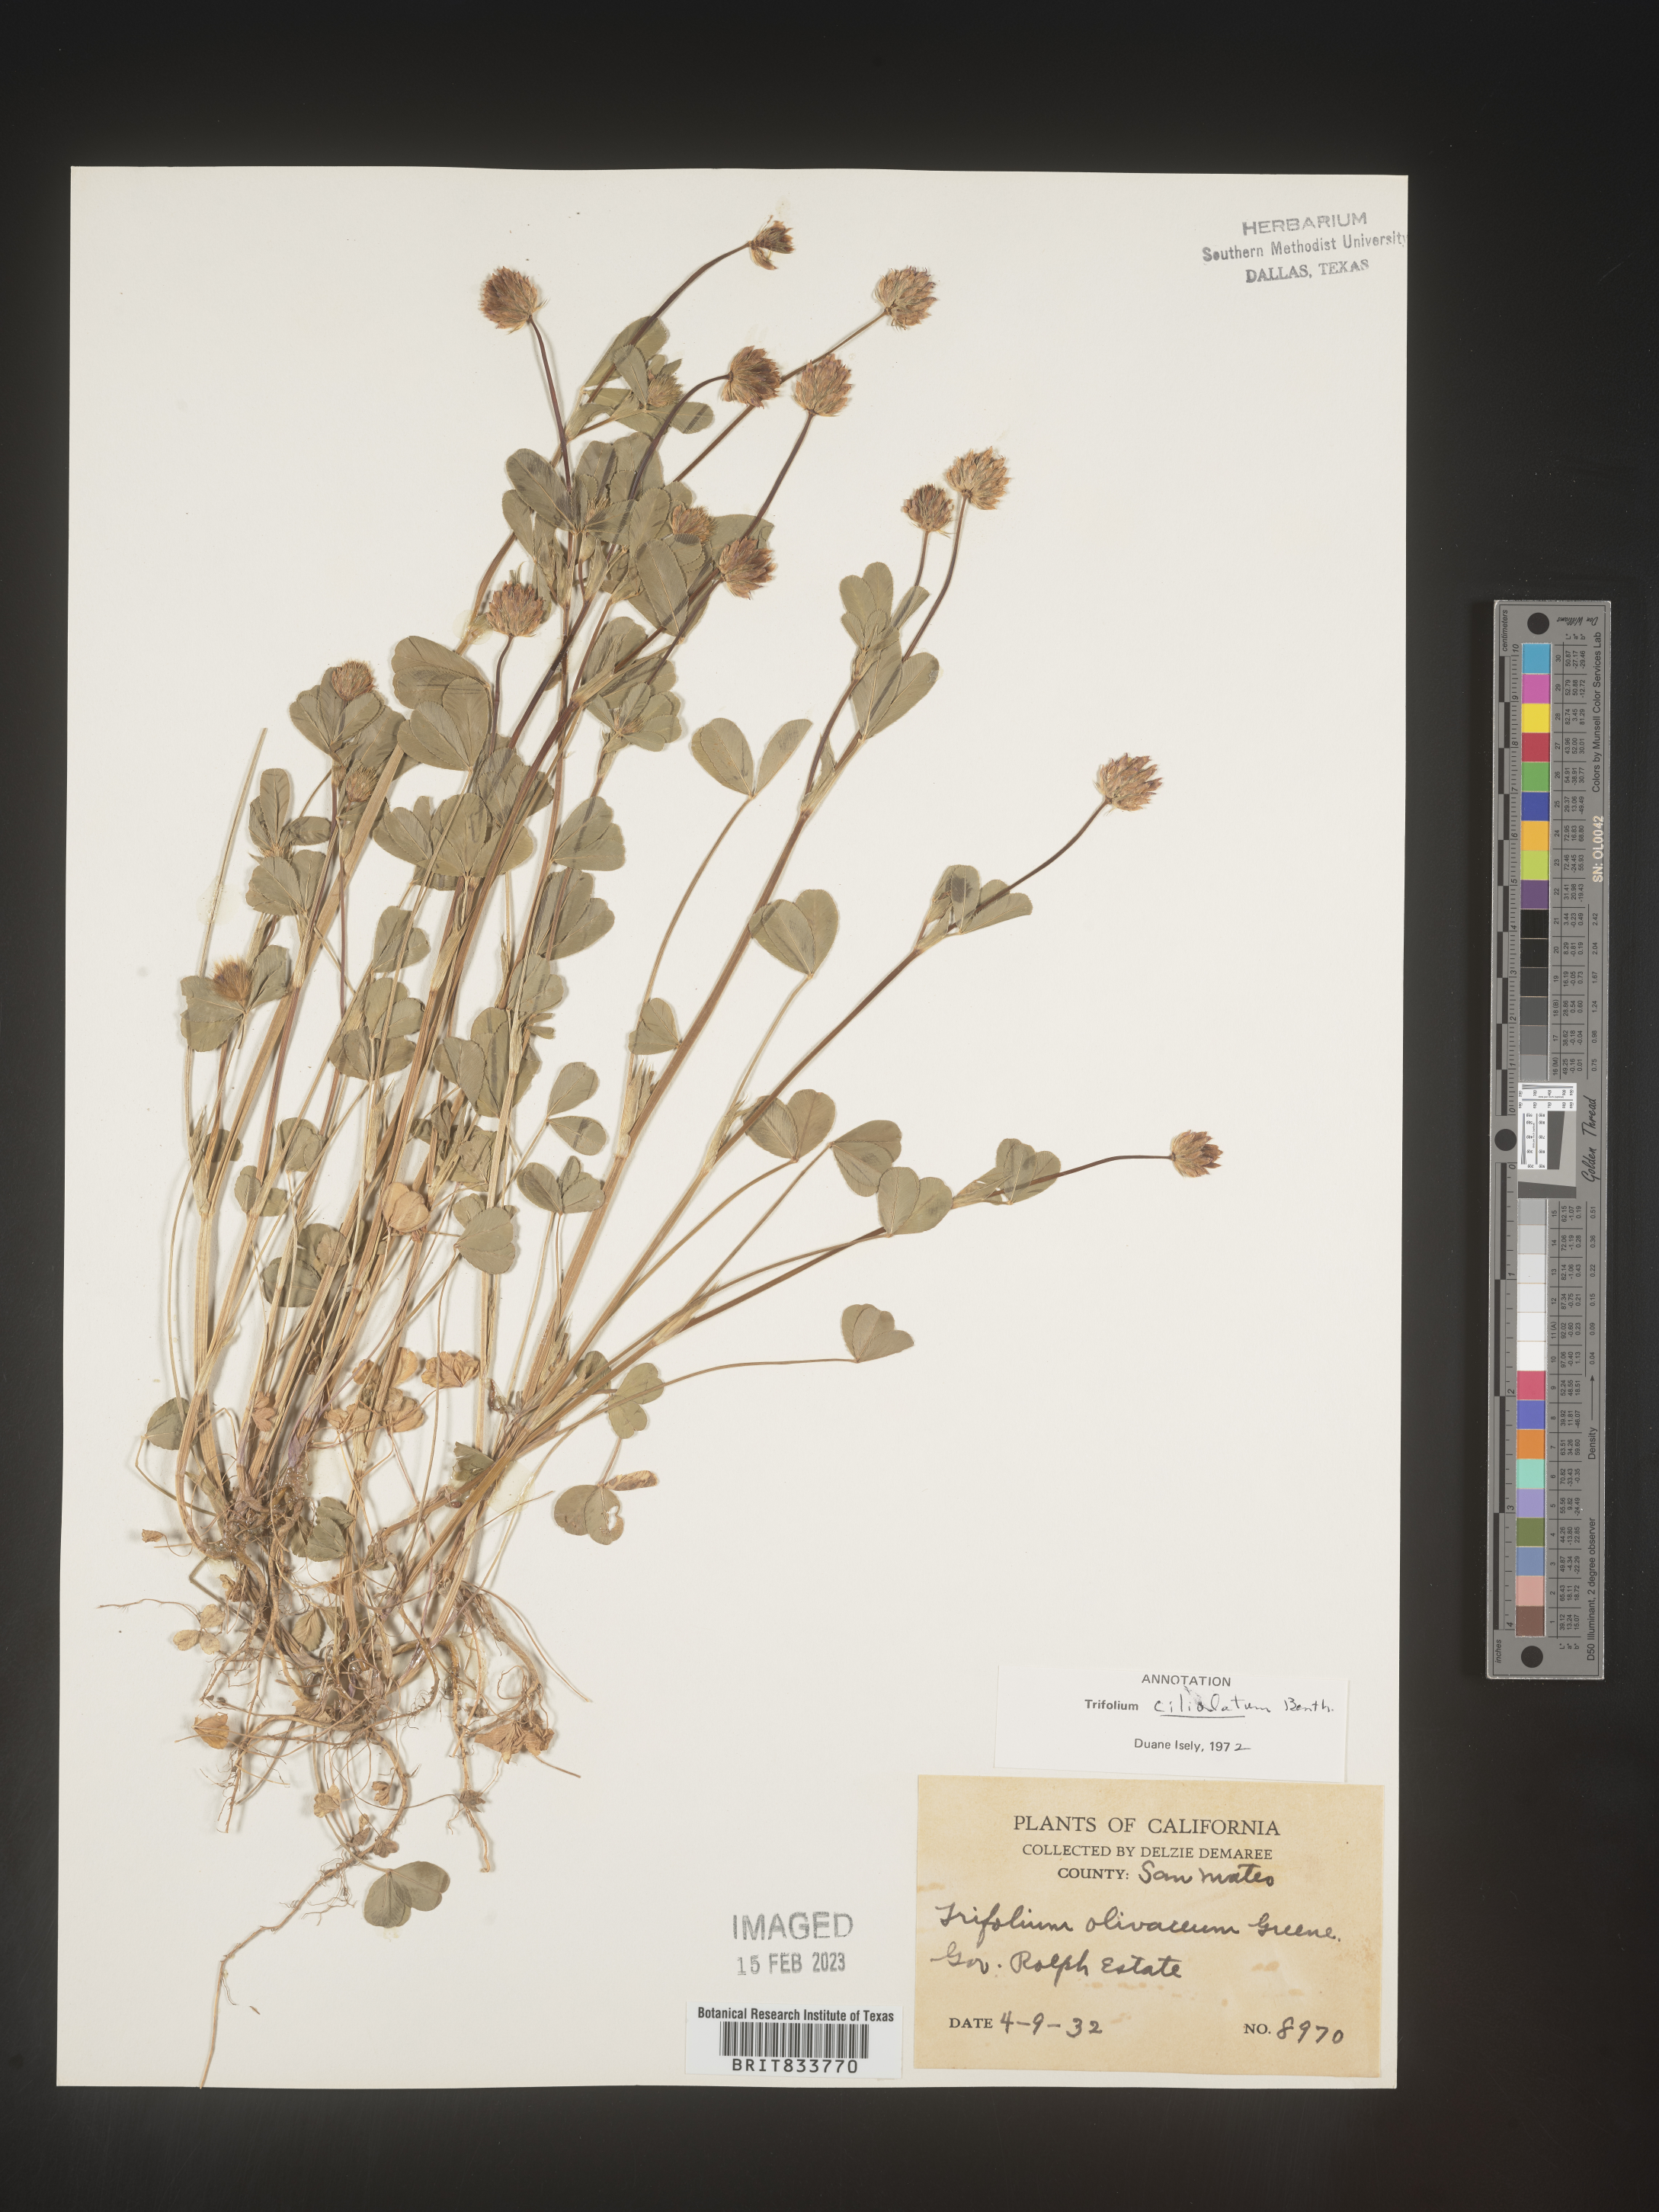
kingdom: Plantae
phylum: Tracheophyta
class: Magnoliopsida
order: Fabales
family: Fabaceae
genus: Trifolium
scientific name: Trifolium
